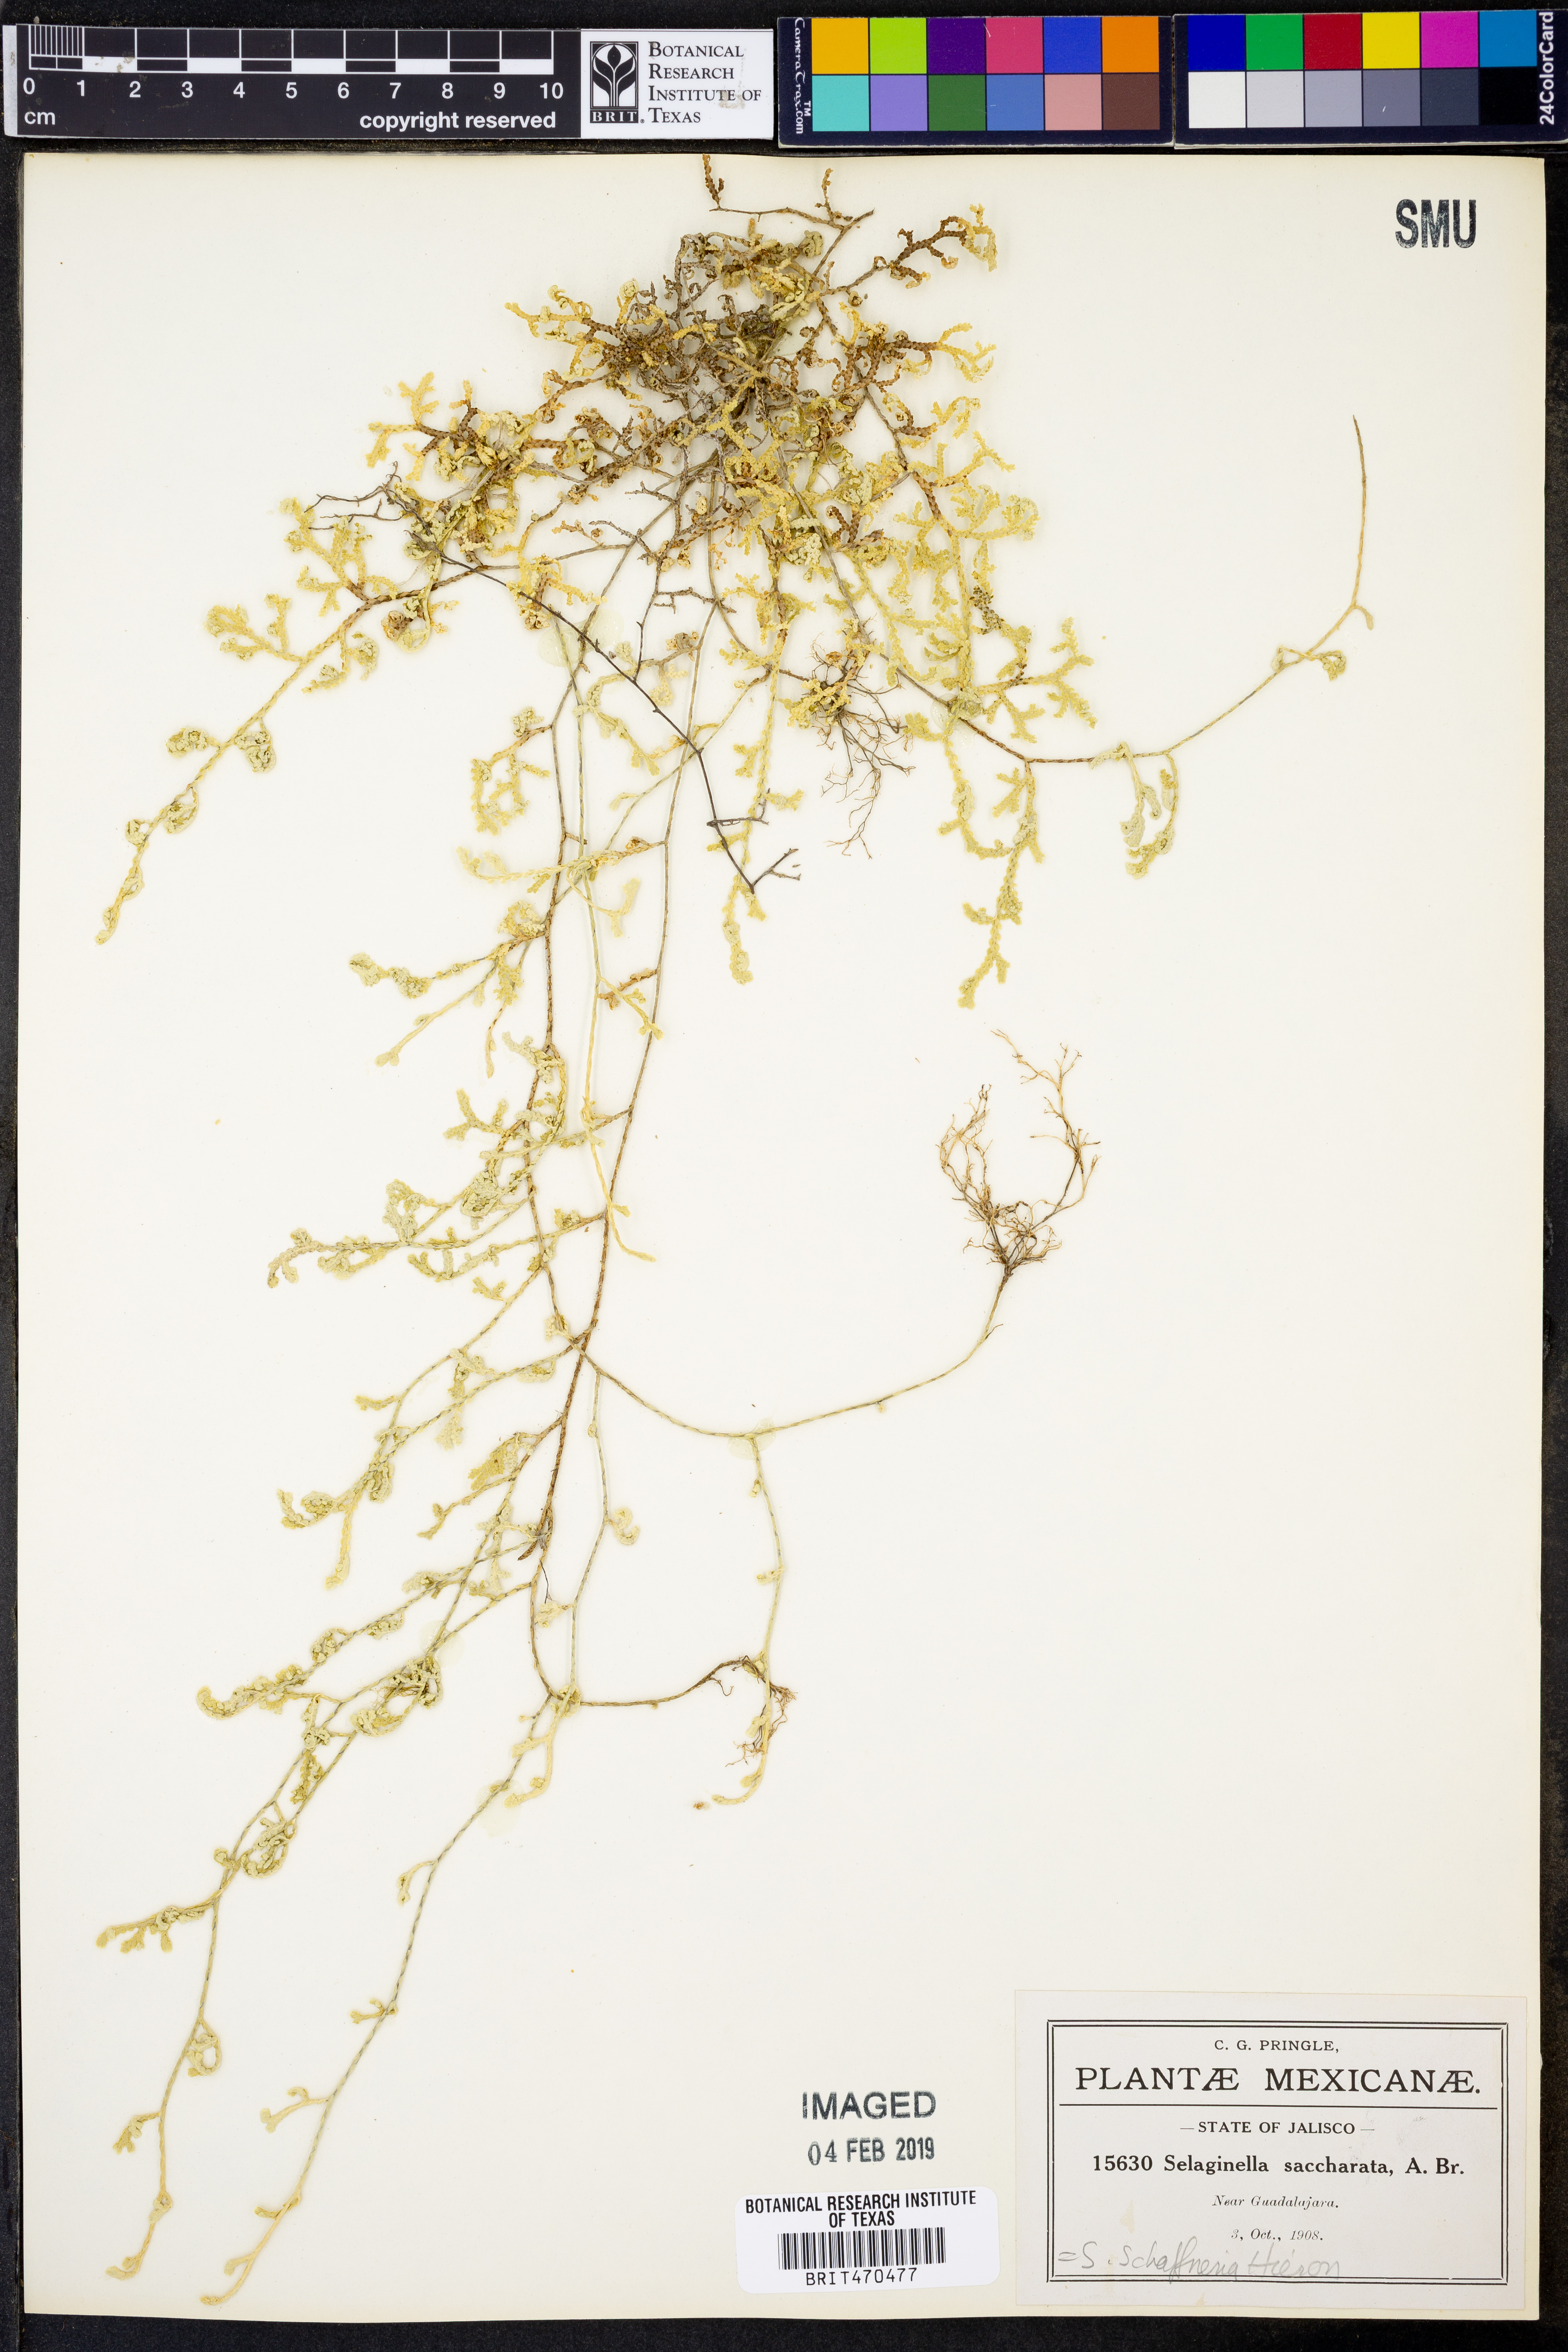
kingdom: Plantae
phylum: Tracheophyta
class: Lycopodiopsida
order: Selaginellales
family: Selaginellaceae
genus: Selaginella
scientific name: Selaginella schaffneri
